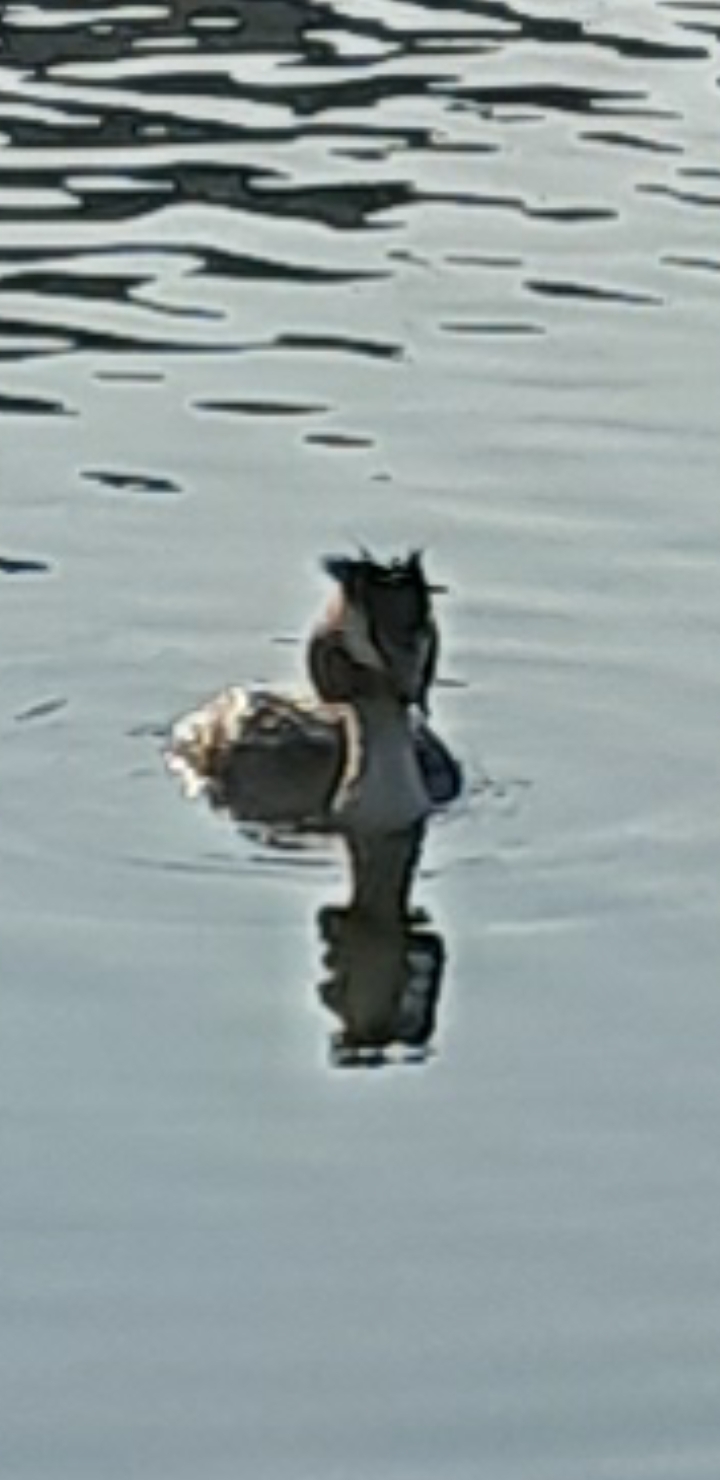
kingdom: Animalia
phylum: Chordata
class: Aves
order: Podicipediformes
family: Podicipedidae
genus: Podiceps
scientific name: Podiceps cristatus
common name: Toppet lappedykker
